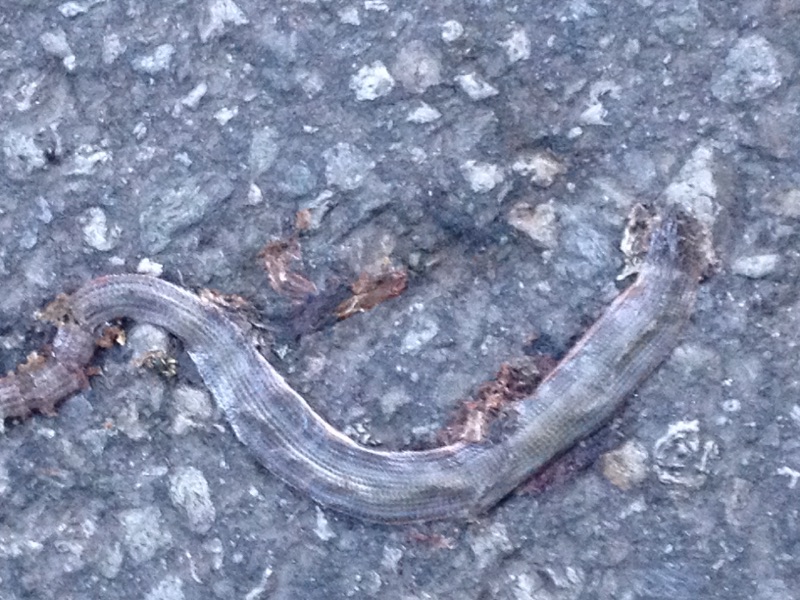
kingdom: Animalia
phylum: Chordata
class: Squamata
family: Anguidae
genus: Anguis
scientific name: Anguis fragilis
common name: Slow worm
